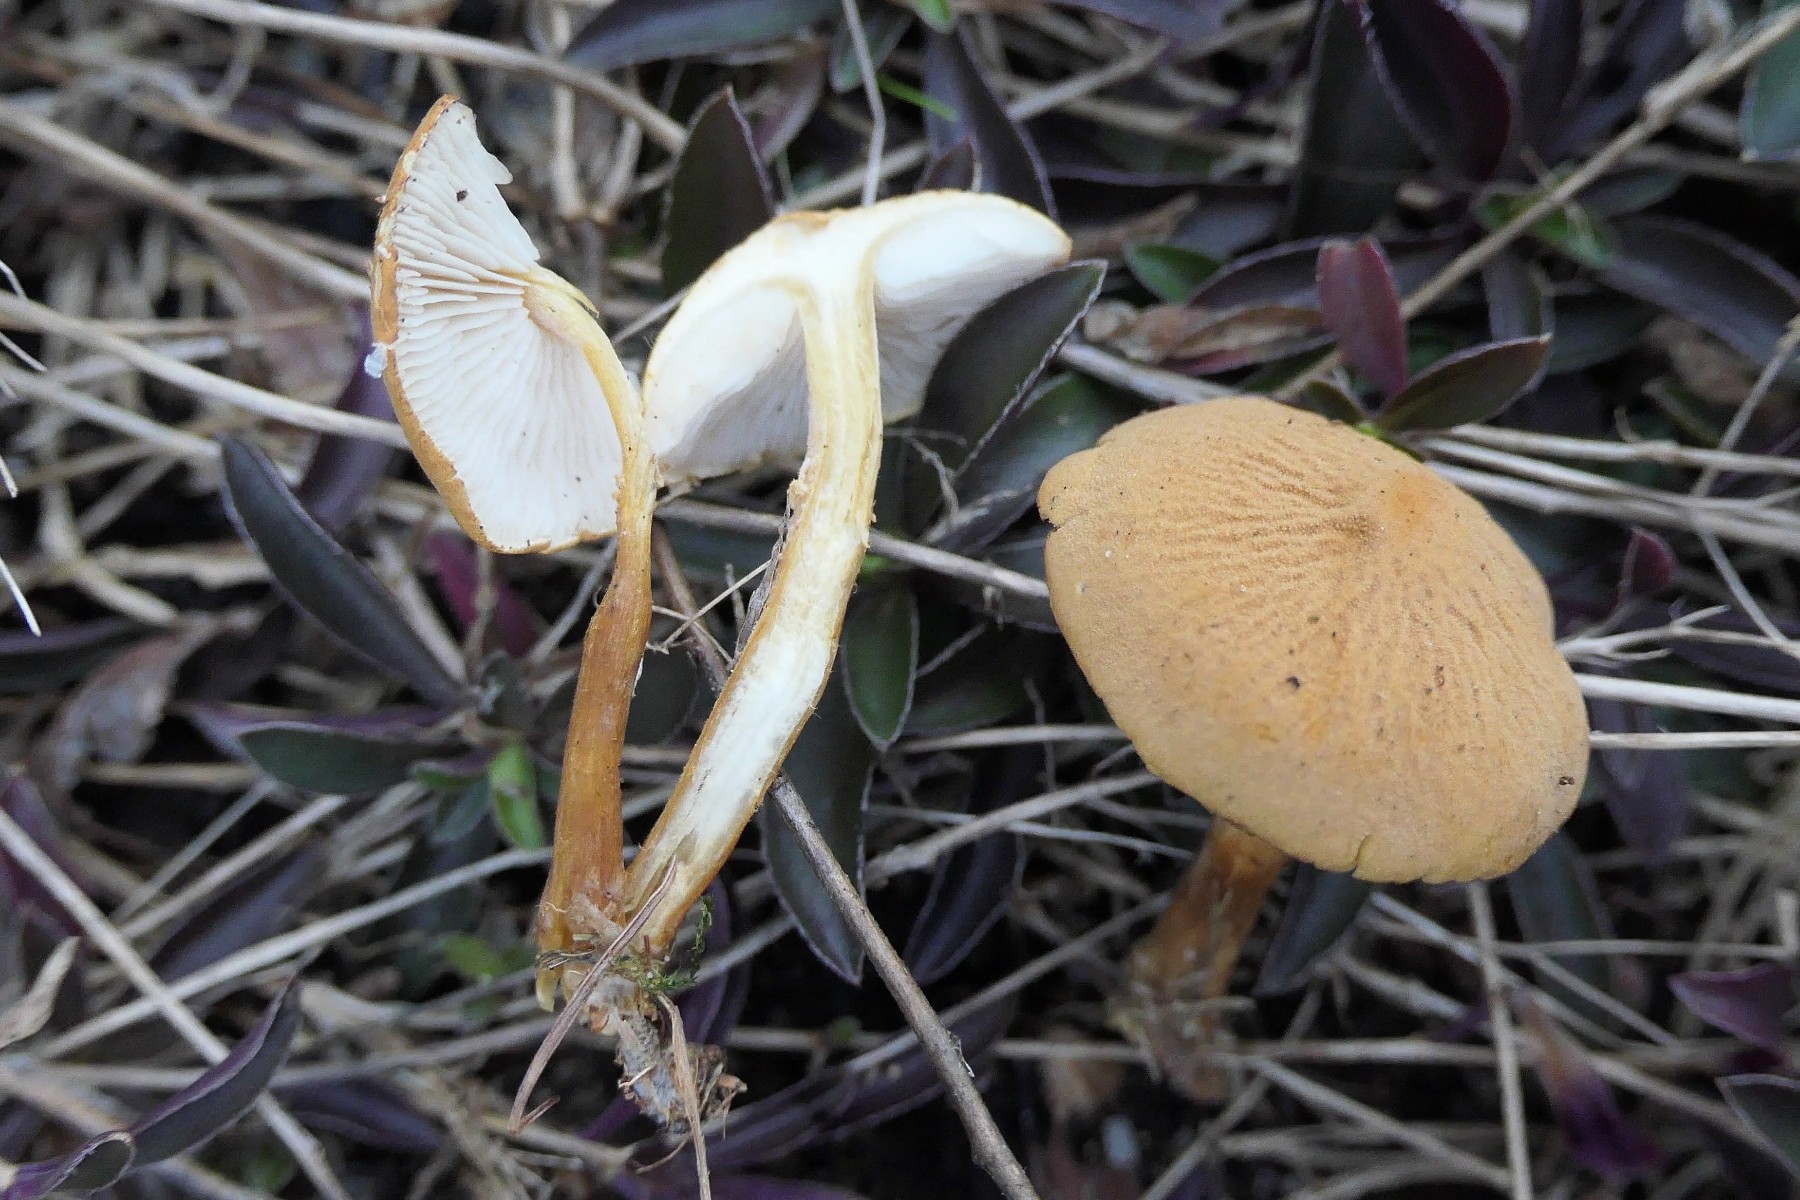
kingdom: Fungi
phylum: Basidiomycota
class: Agaricomycetes
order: Agaricales
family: Tricholomataceae
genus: Cystoderma
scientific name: Cystoderma amianthinum
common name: okkergul grynhat
